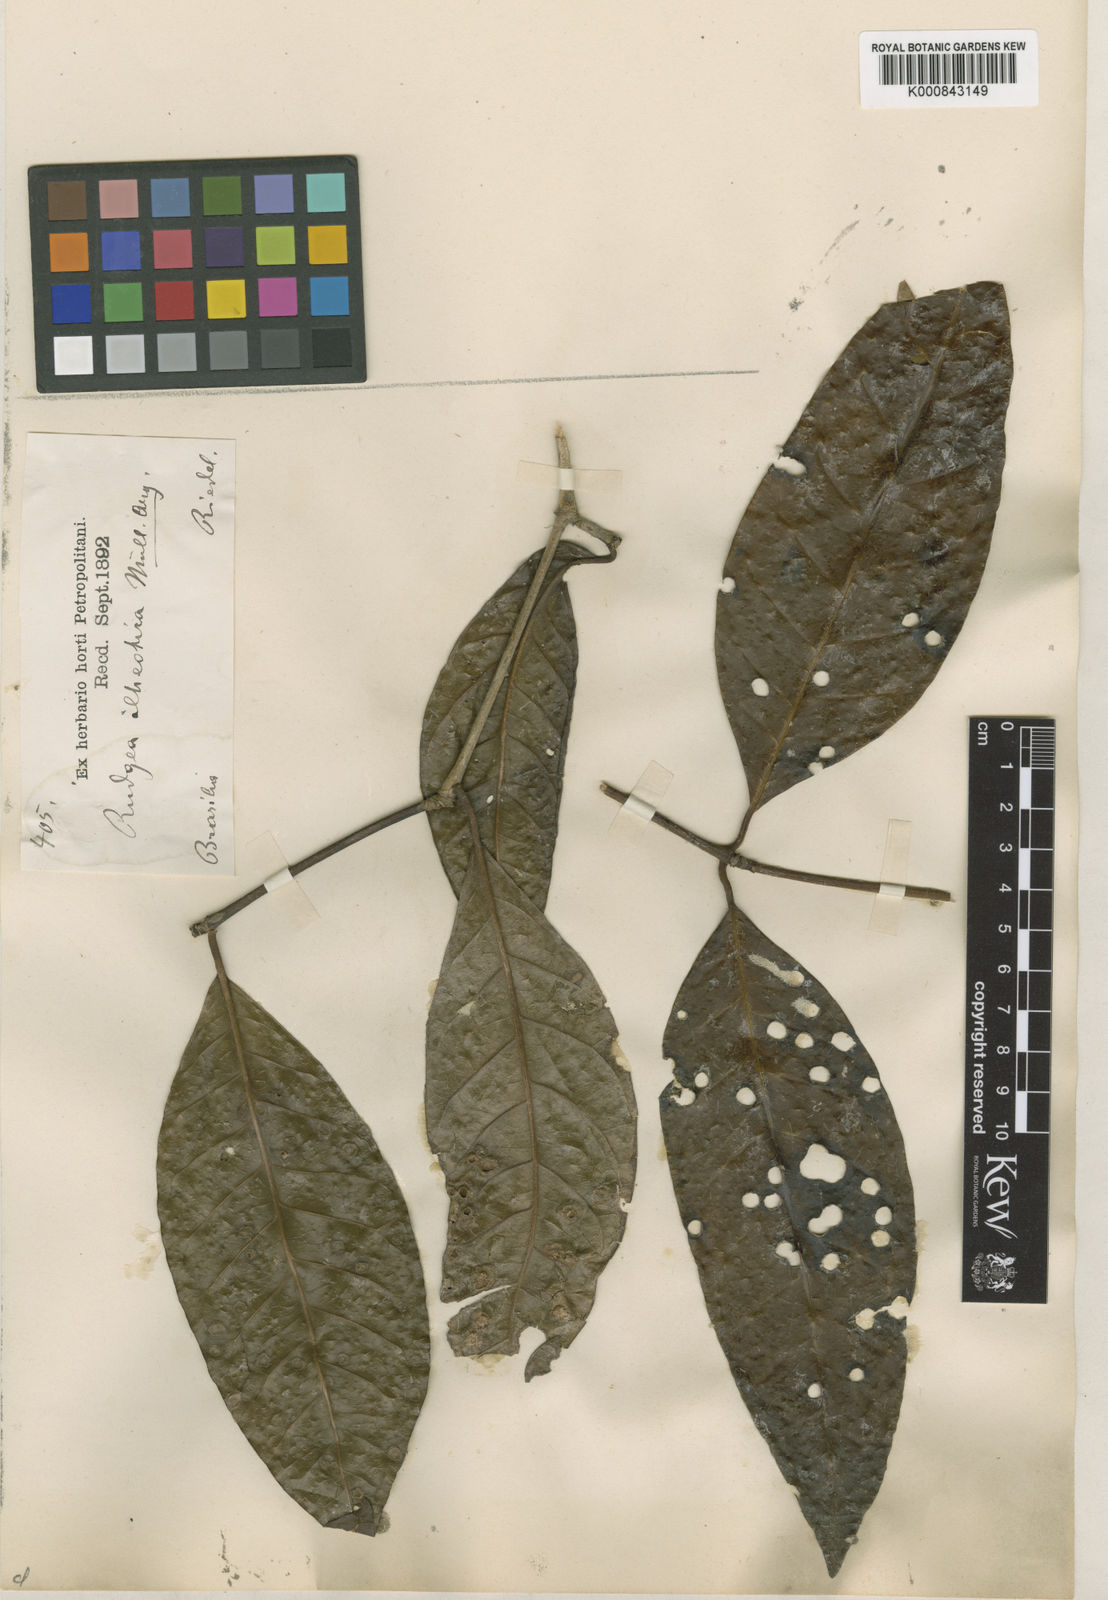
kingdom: Plantae
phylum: Tracheophyta
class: Magnoliopsida
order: Gentianales
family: Rubiaceae
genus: Rudgea
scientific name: Rudgea
